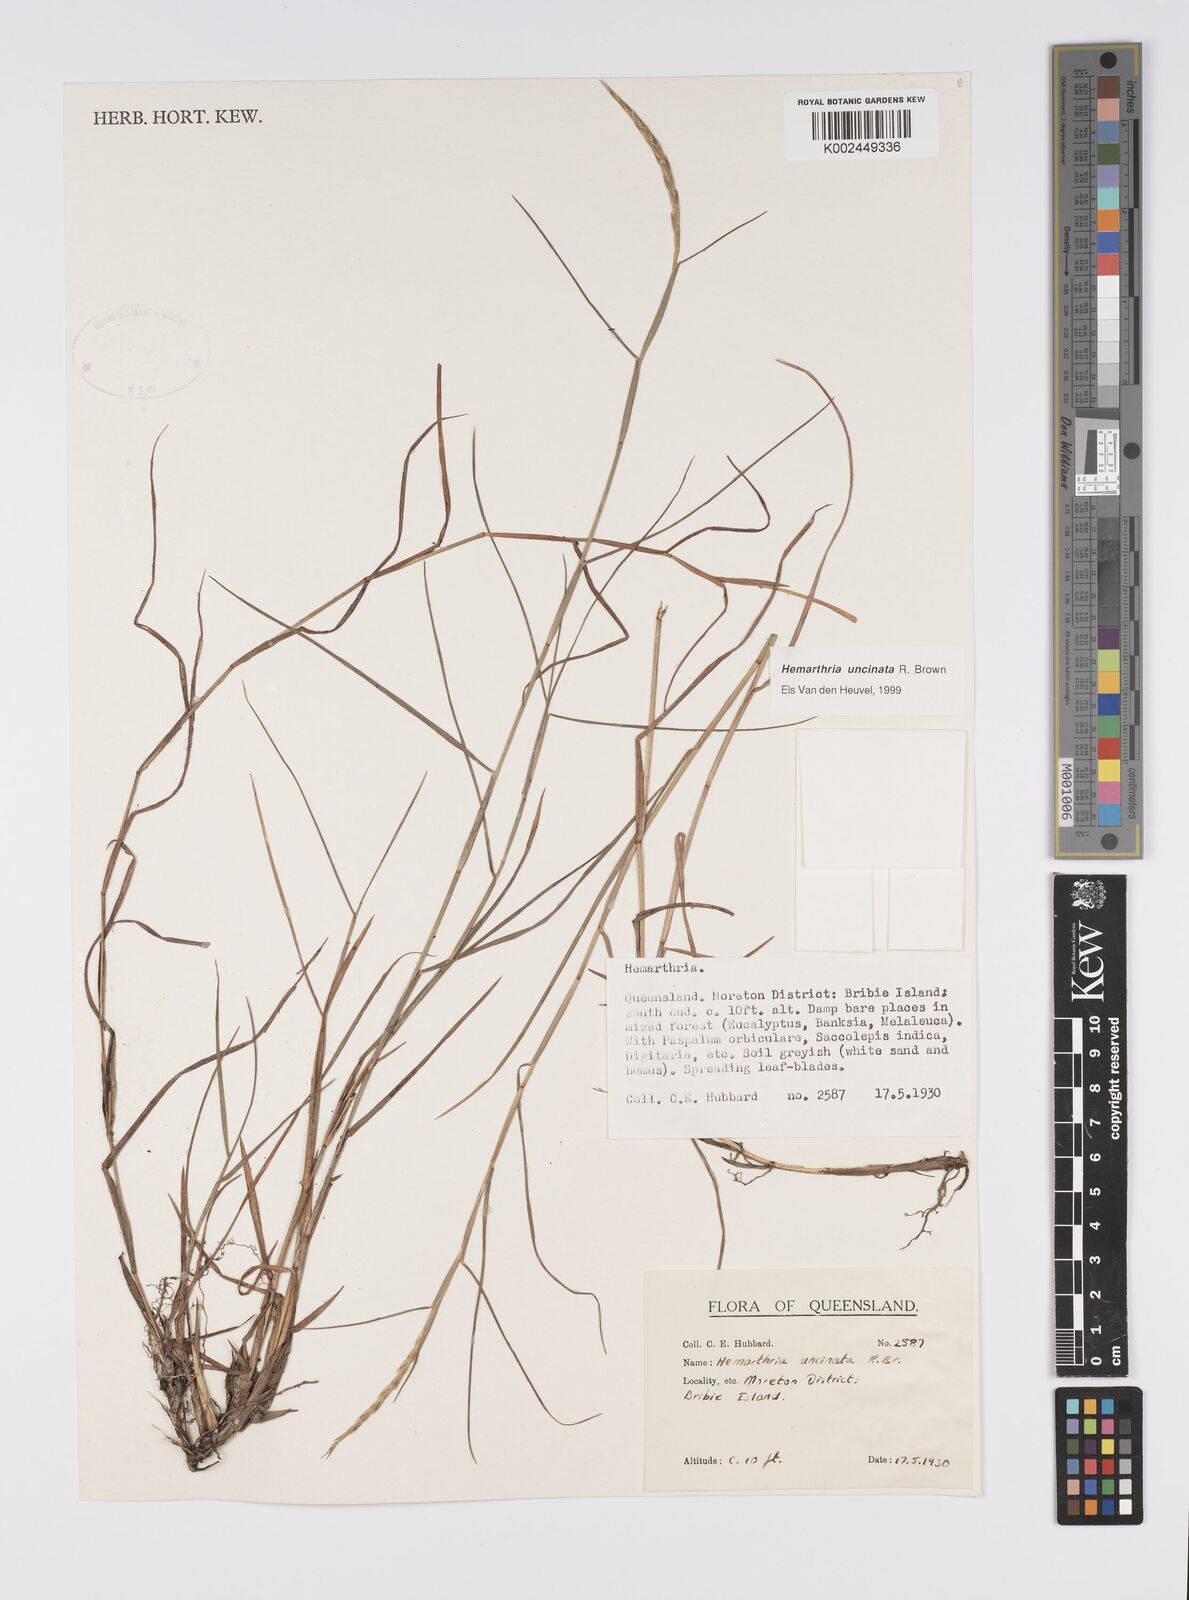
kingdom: Plantae
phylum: Tracheophyta
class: Liliopsida
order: Poales
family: Poaceae
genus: Hemarthria
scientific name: Hemarthria uncinata
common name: Matgrass
